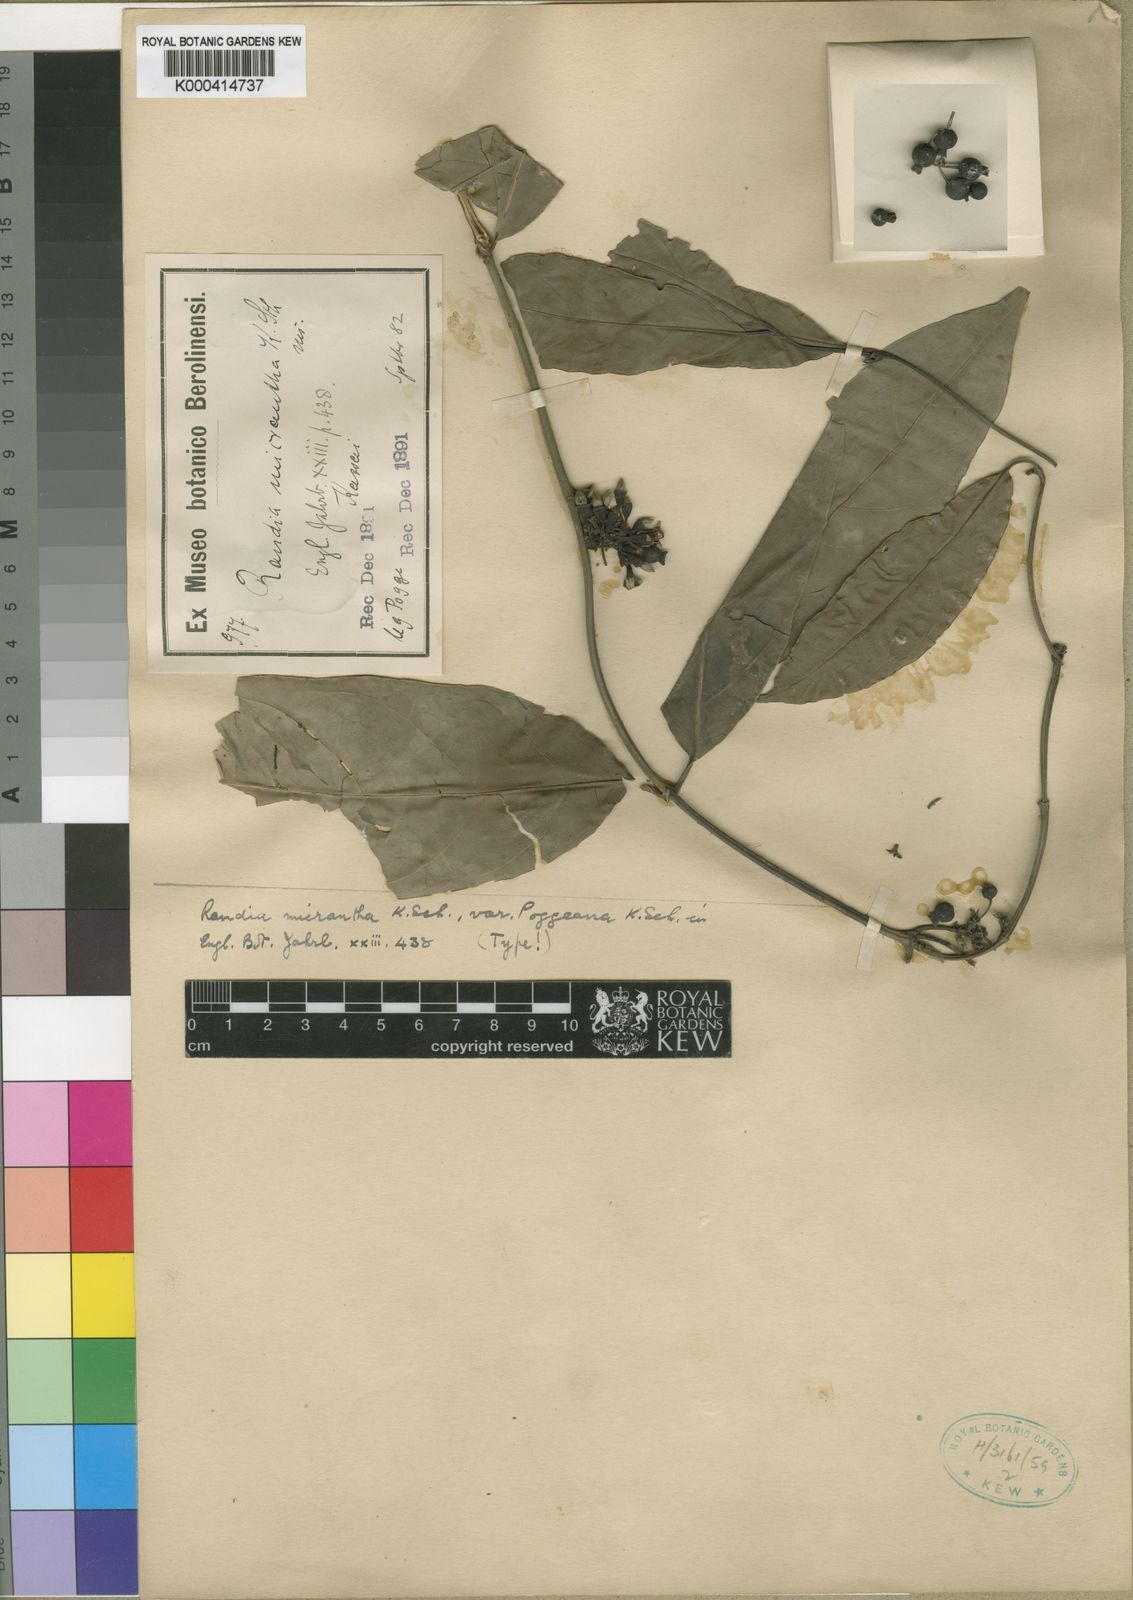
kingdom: Plantae
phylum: Tracheophyta
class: Magnoliopsida
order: Gentianales
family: Rubiaceae
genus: Aidia
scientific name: Aidia micrantha
